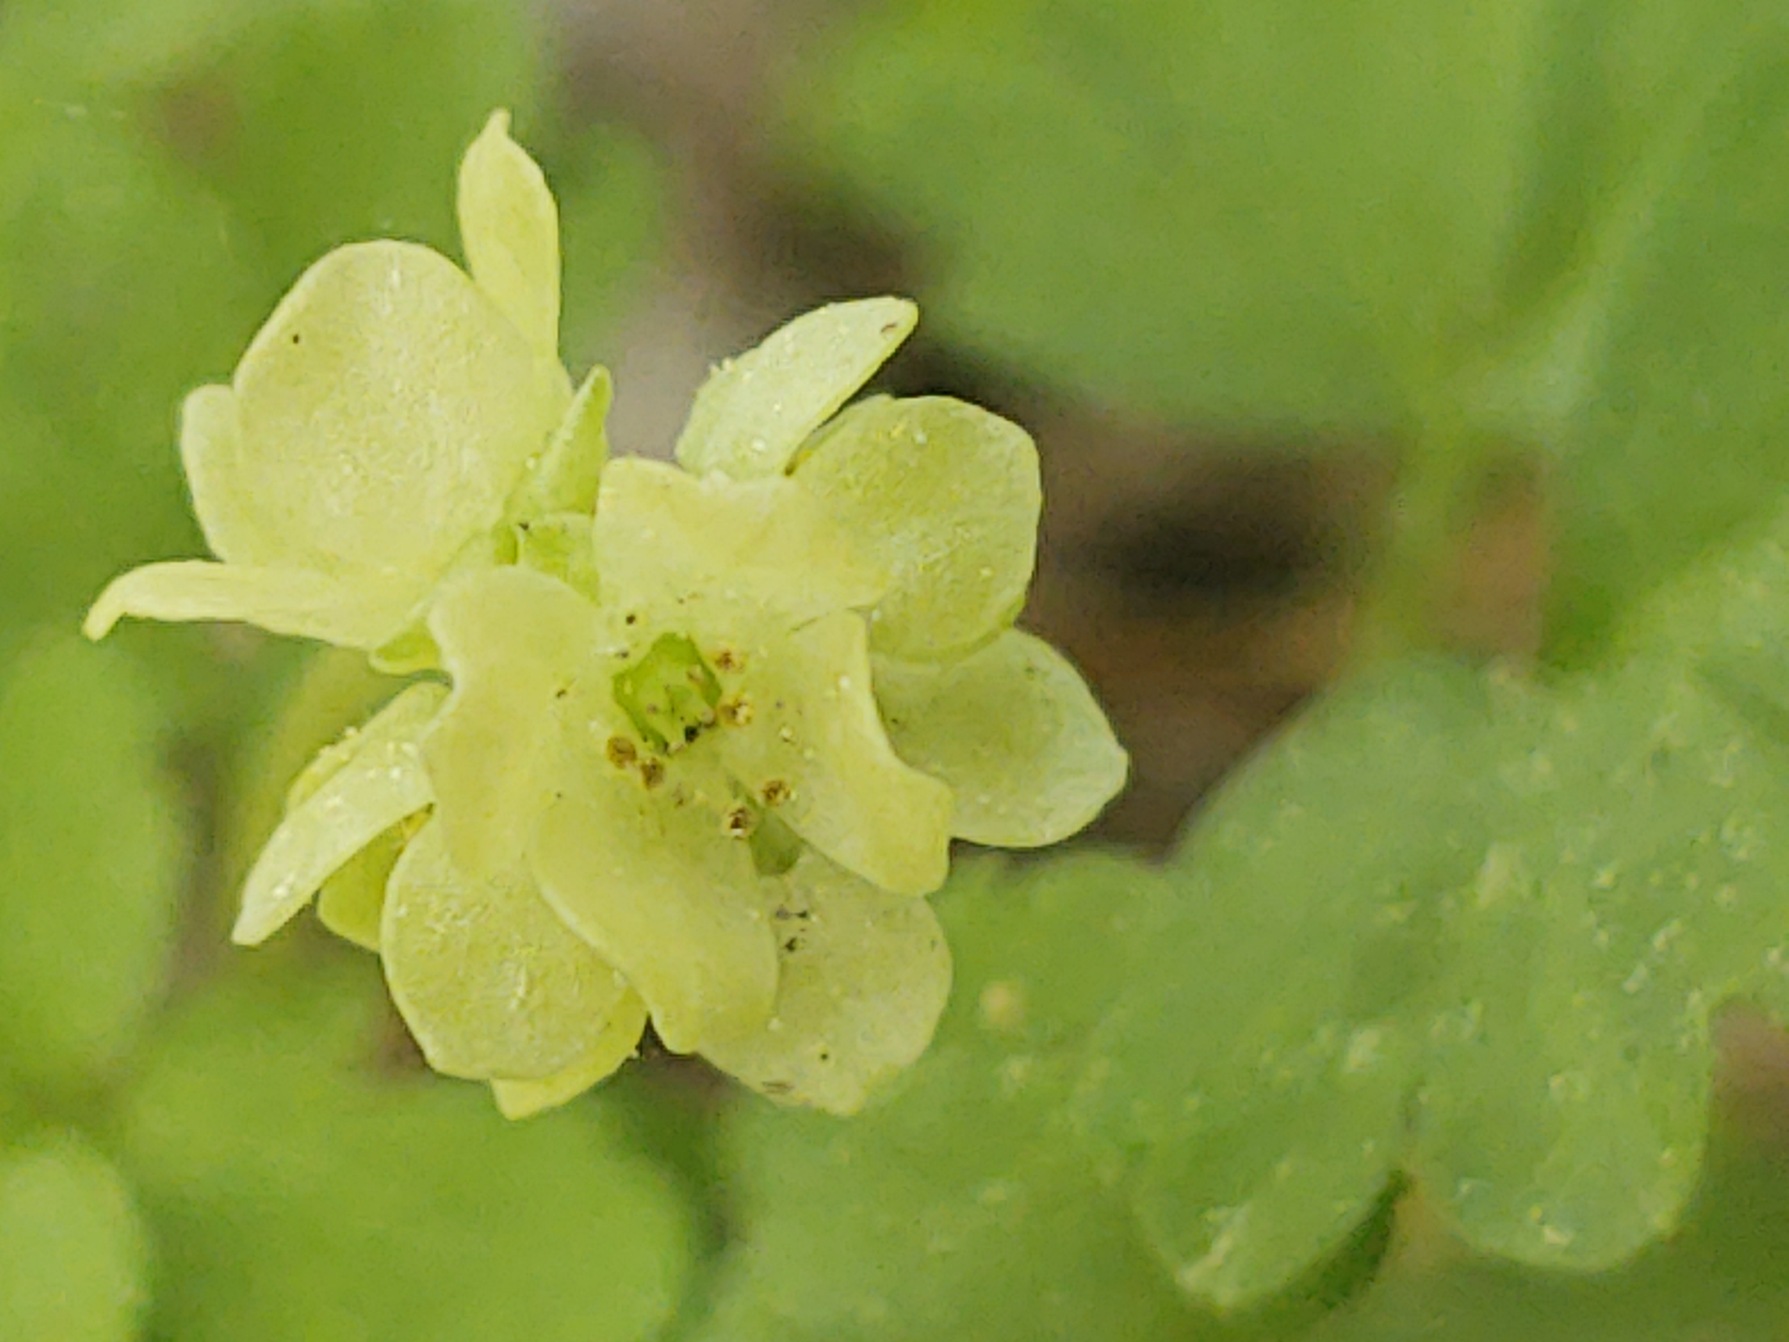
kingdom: Plantae
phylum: Tracheophyta
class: Magnoliopsida
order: Dipsacales
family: Viburnaceae
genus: Adoxa
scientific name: Adoxa moschatellina
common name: Desmerurt
